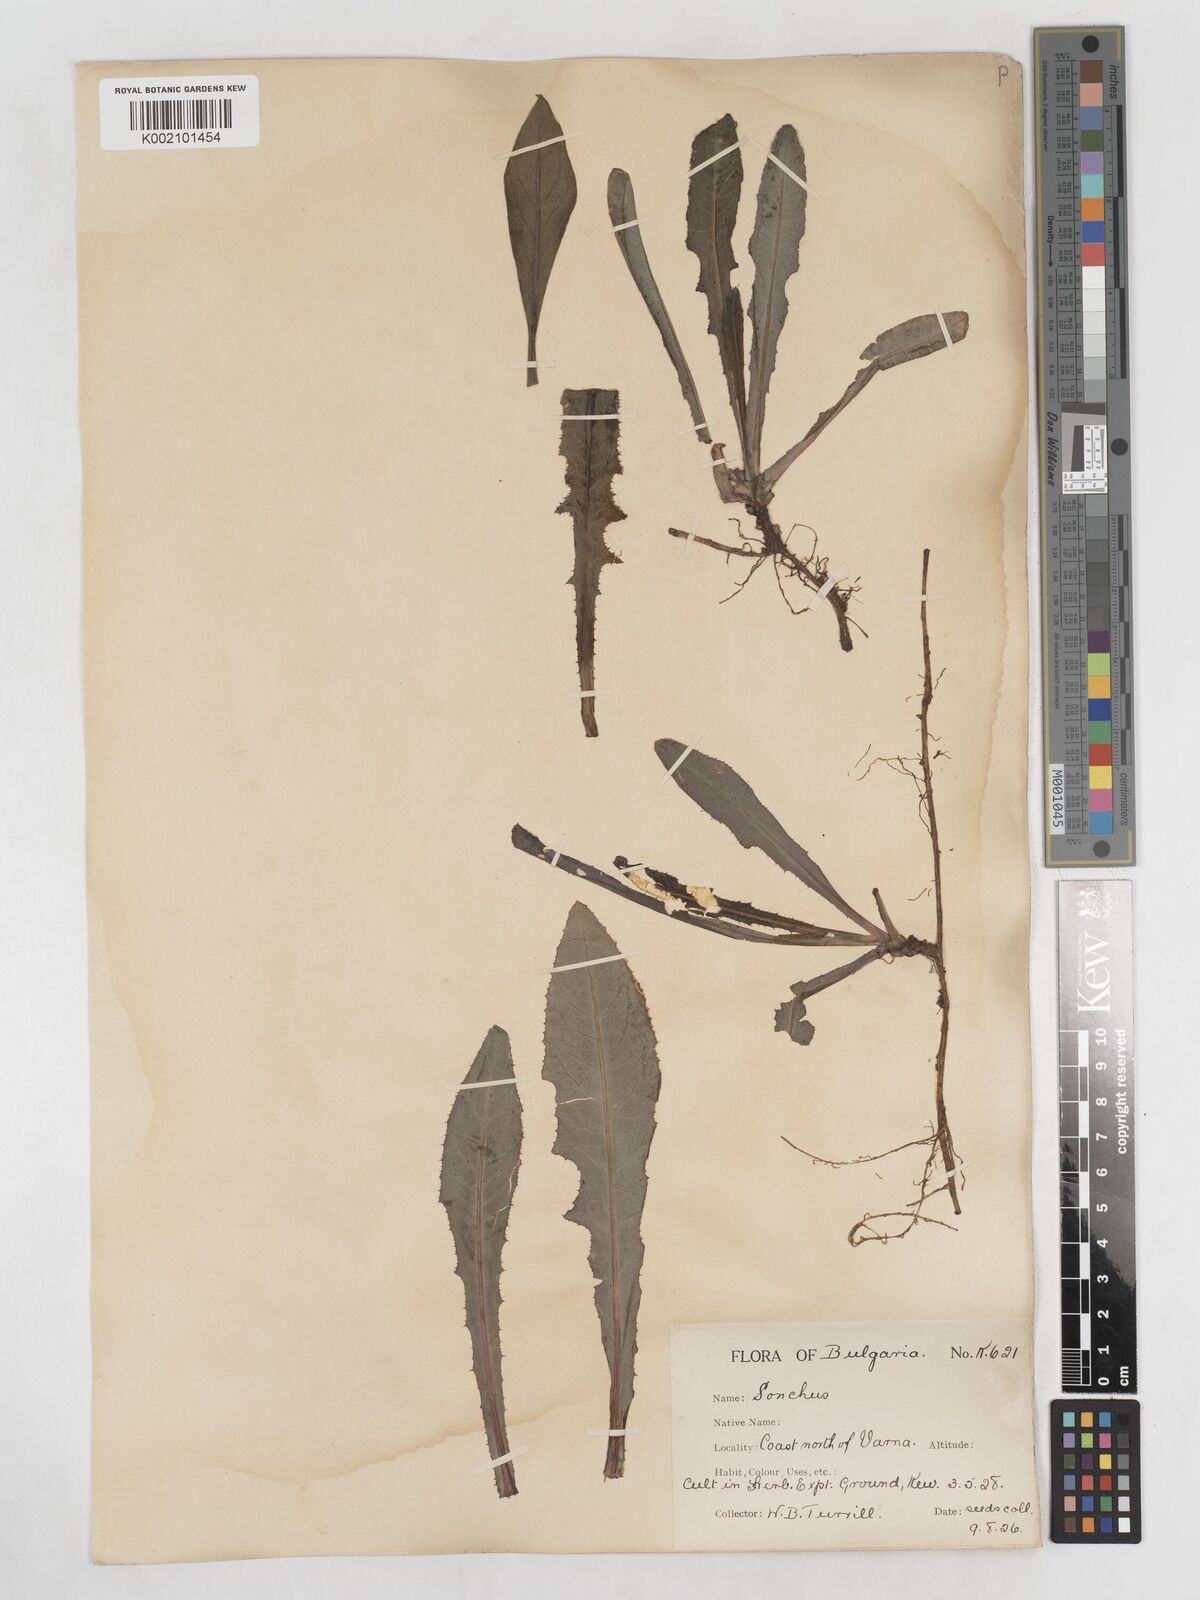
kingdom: Plantae
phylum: Tracheophyta
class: Magnoliopsida
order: Asterales
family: Asteraceae
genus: Sonchus
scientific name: Sonchus arvensis
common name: Perennial sow-thistle
